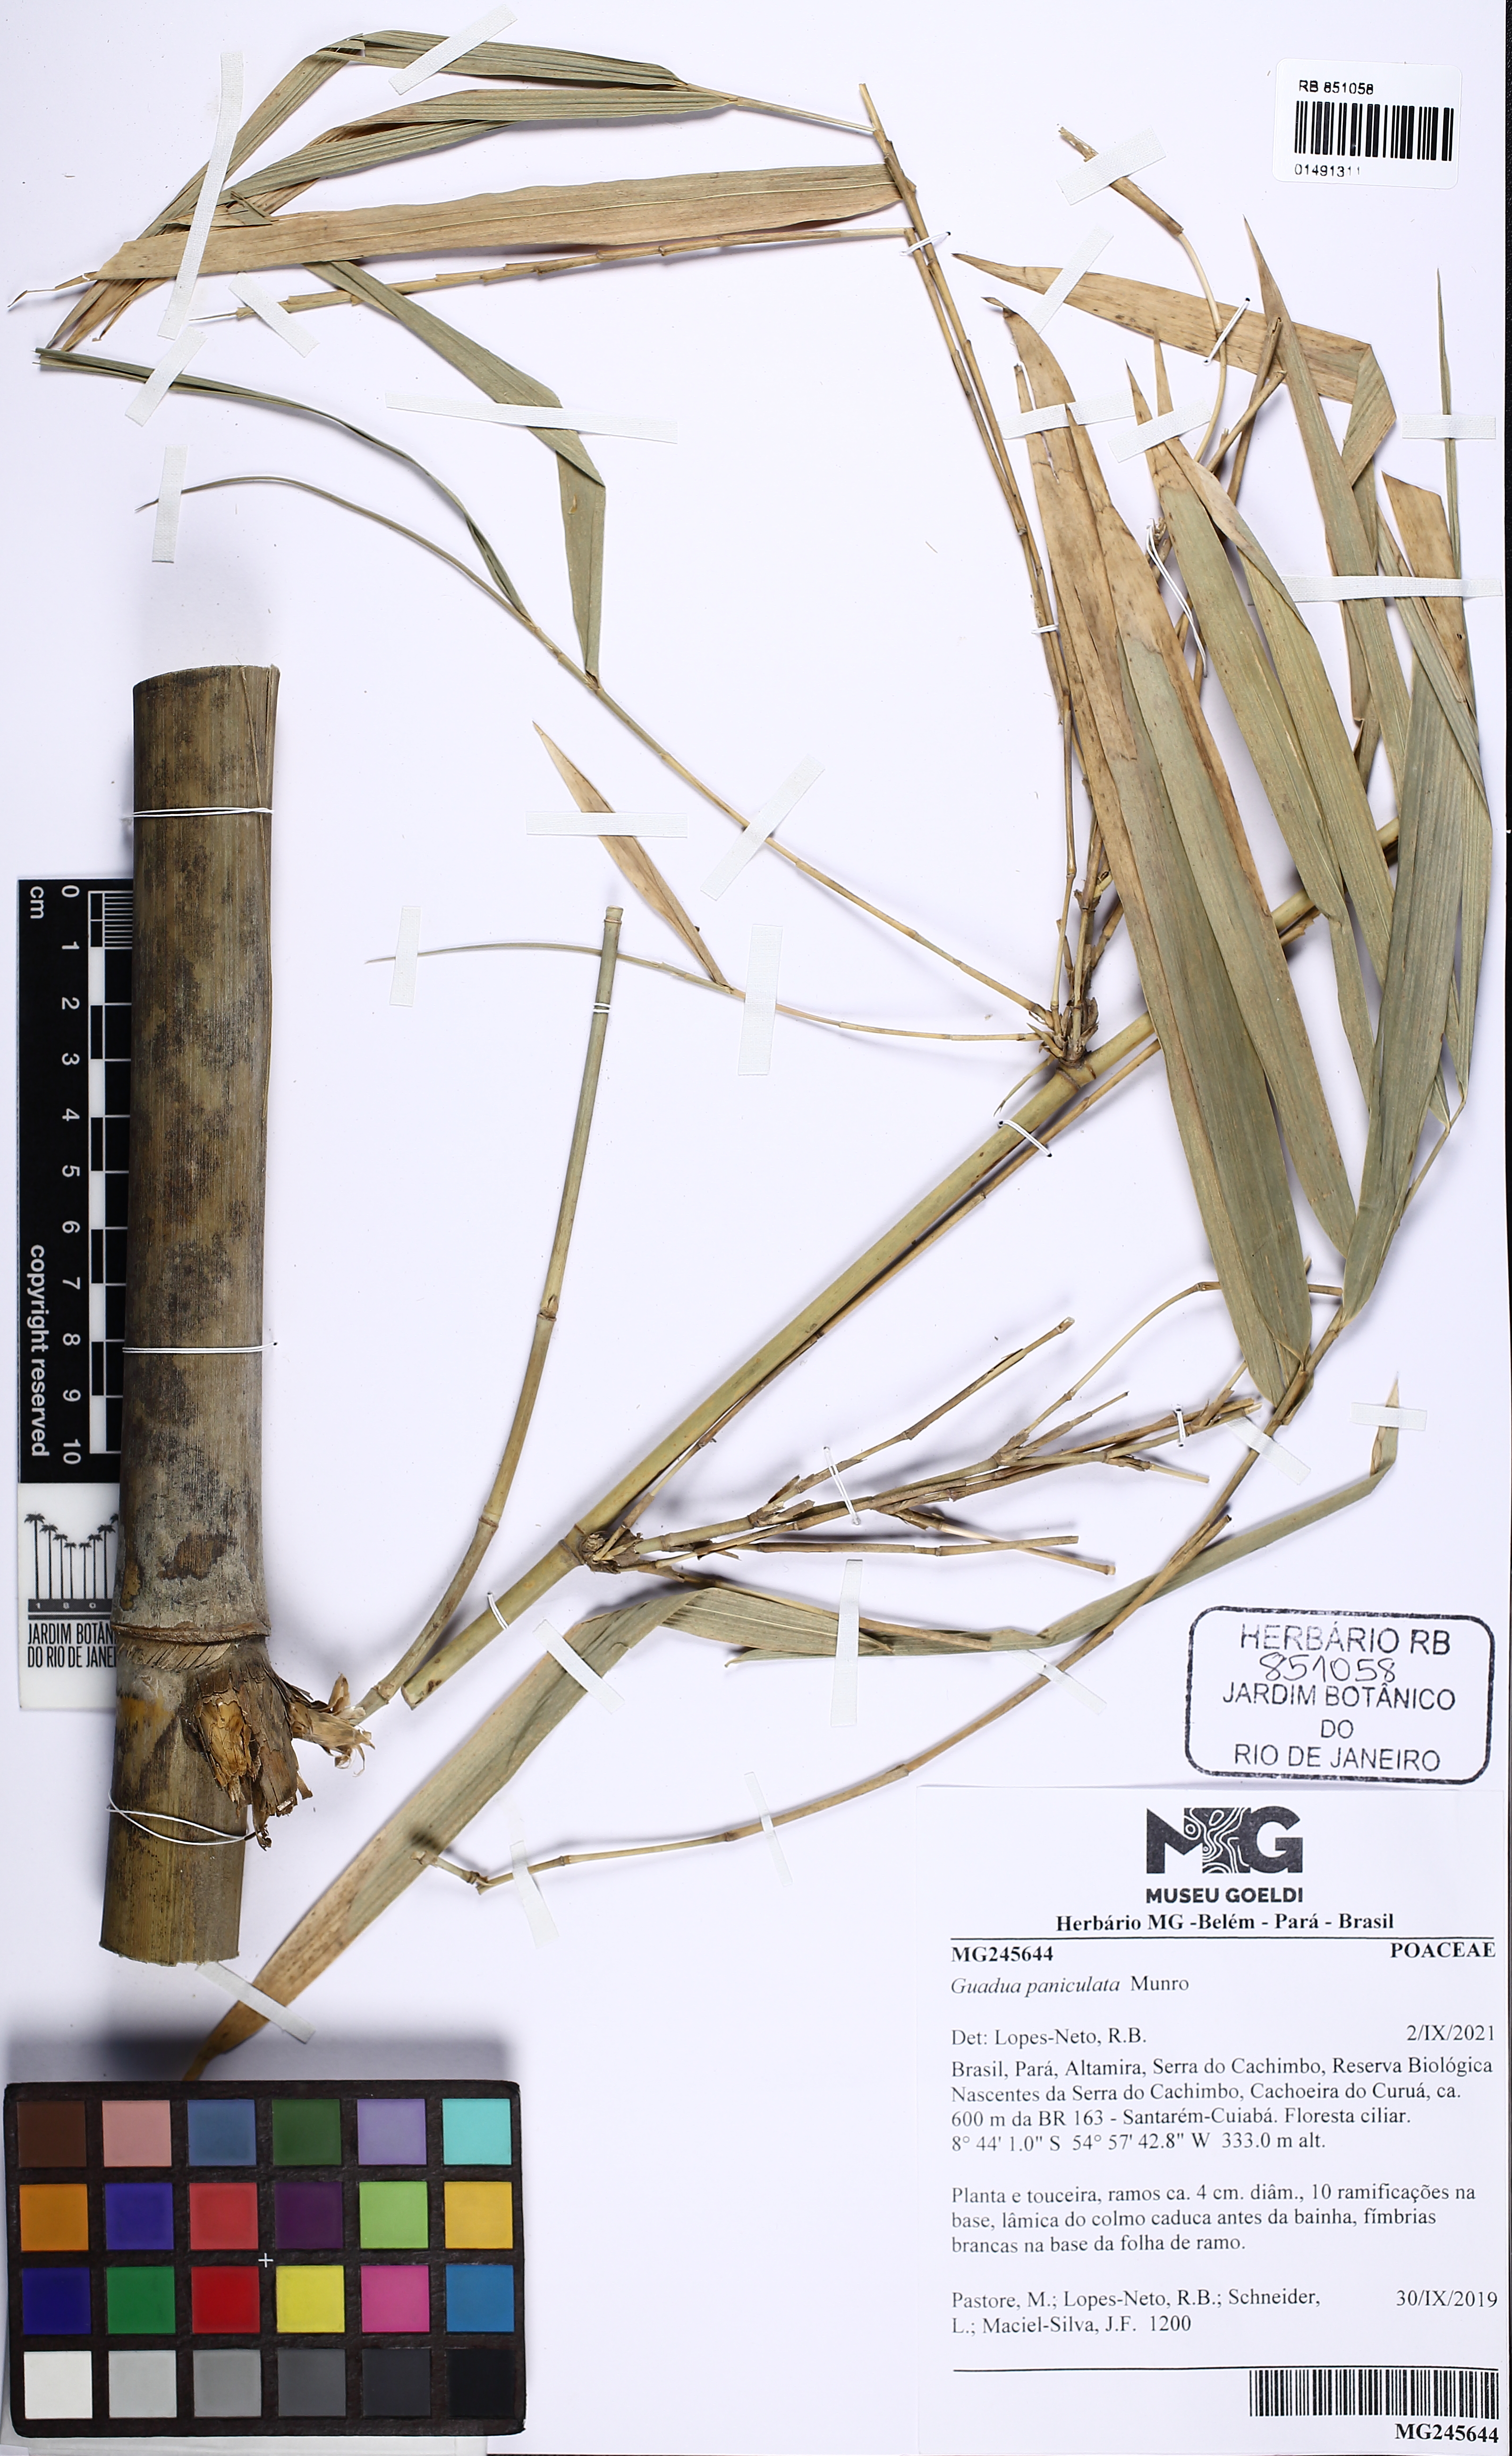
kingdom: Plantae
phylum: Tracheophyta
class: Liliopsida
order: Poales
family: Poaceae
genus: Guadua
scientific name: Guadua paniculata
